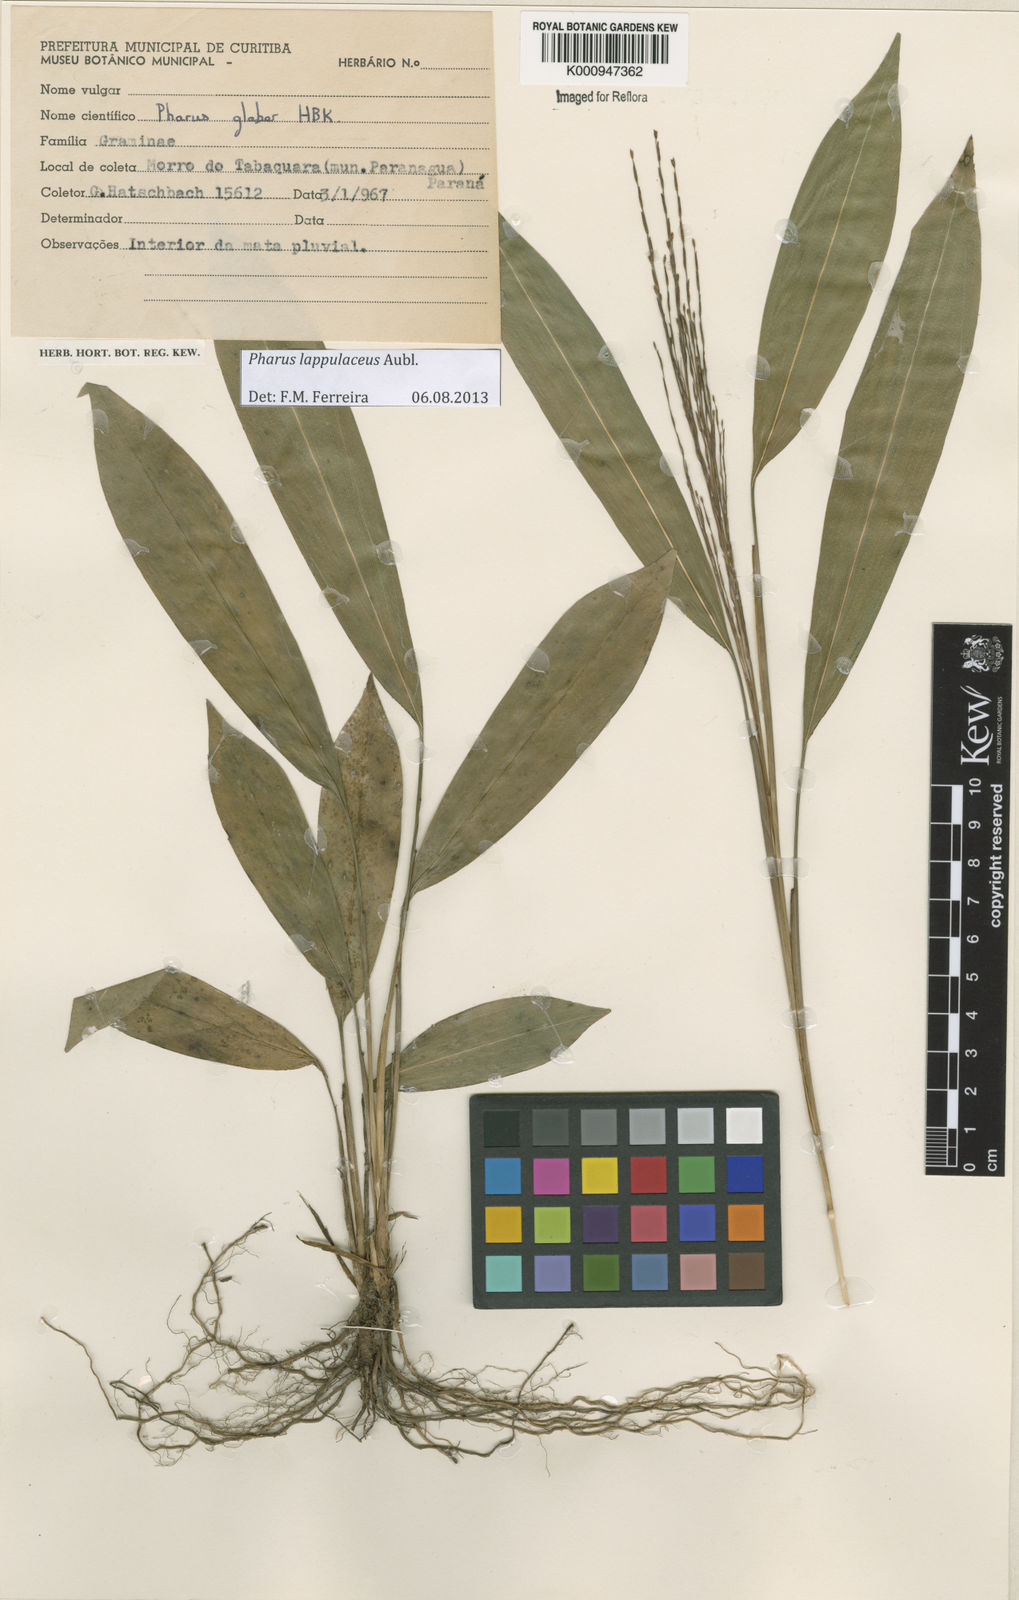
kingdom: Plantae
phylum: Tracheophyta
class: Liliopsida
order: Poales
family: Poaceae
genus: Pharus
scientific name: Pharus lappulaceus
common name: Creeping leafstalk grass
